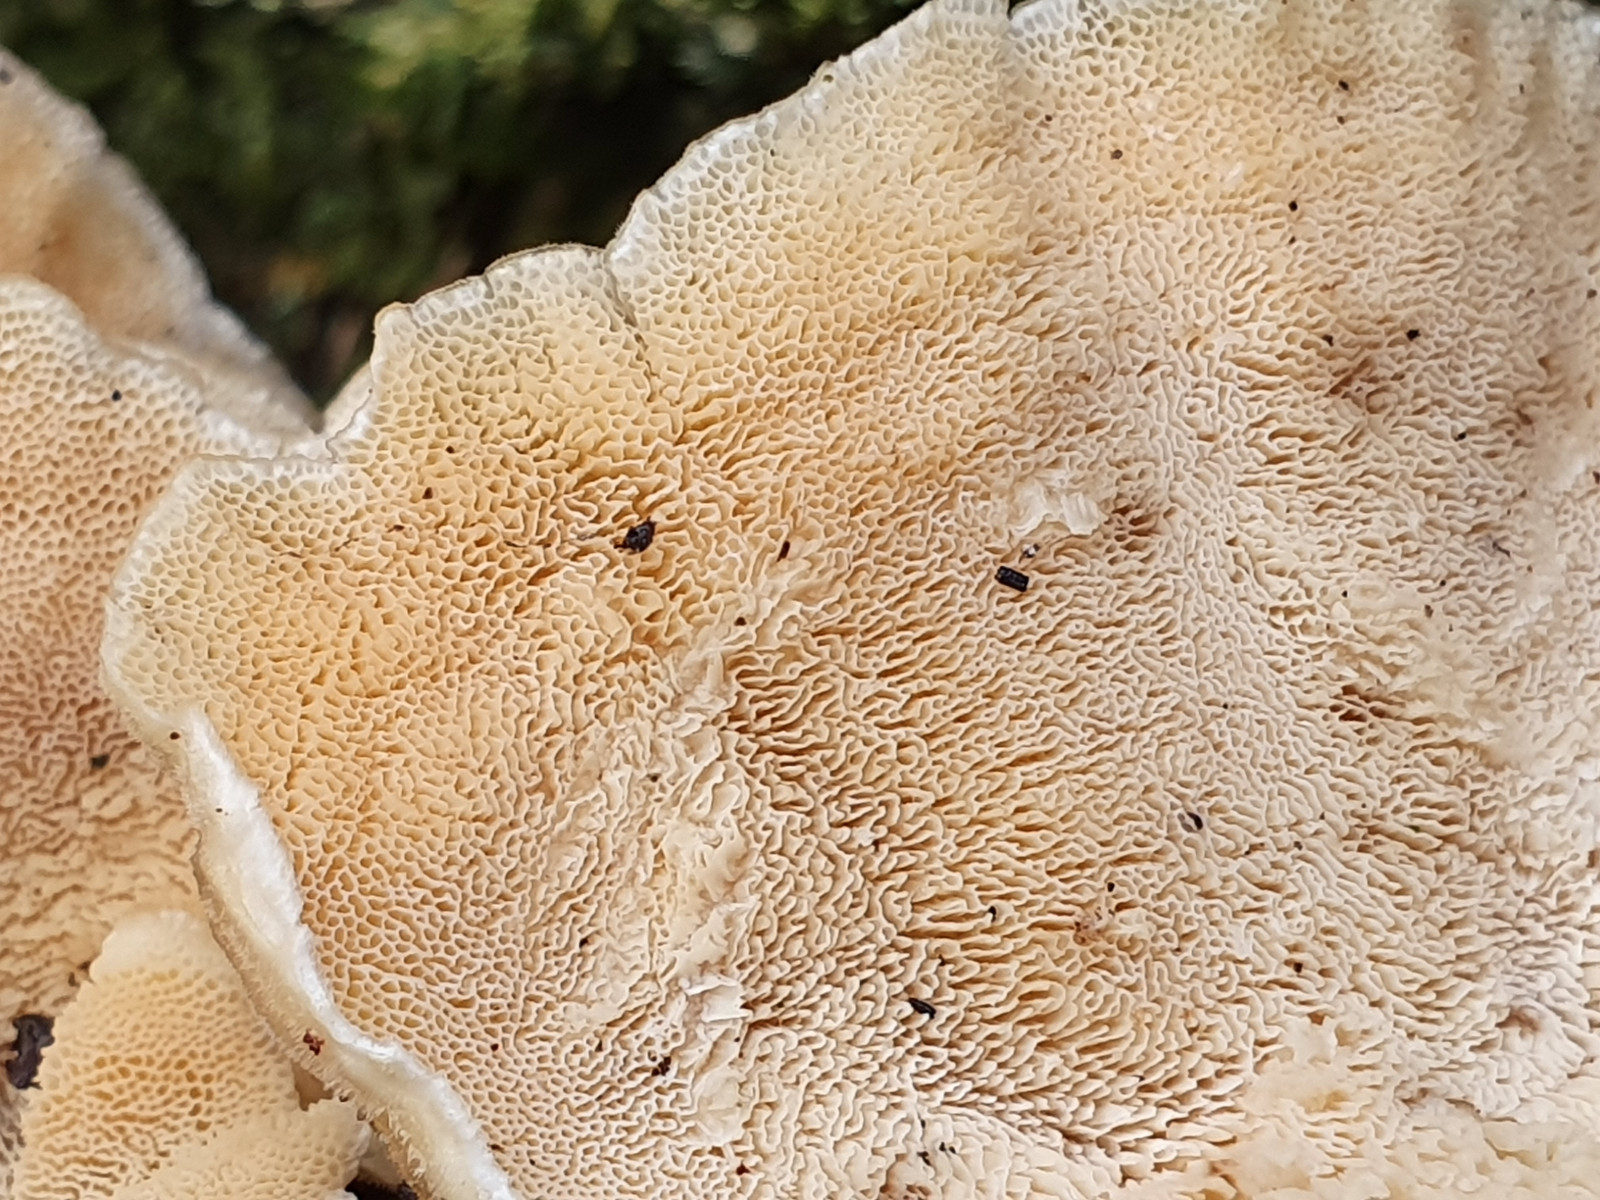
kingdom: Fungi
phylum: Basidiomycota
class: Agaricomycetes
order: Polyporales
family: Polyporaceae
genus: Trametes
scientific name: Trametes
